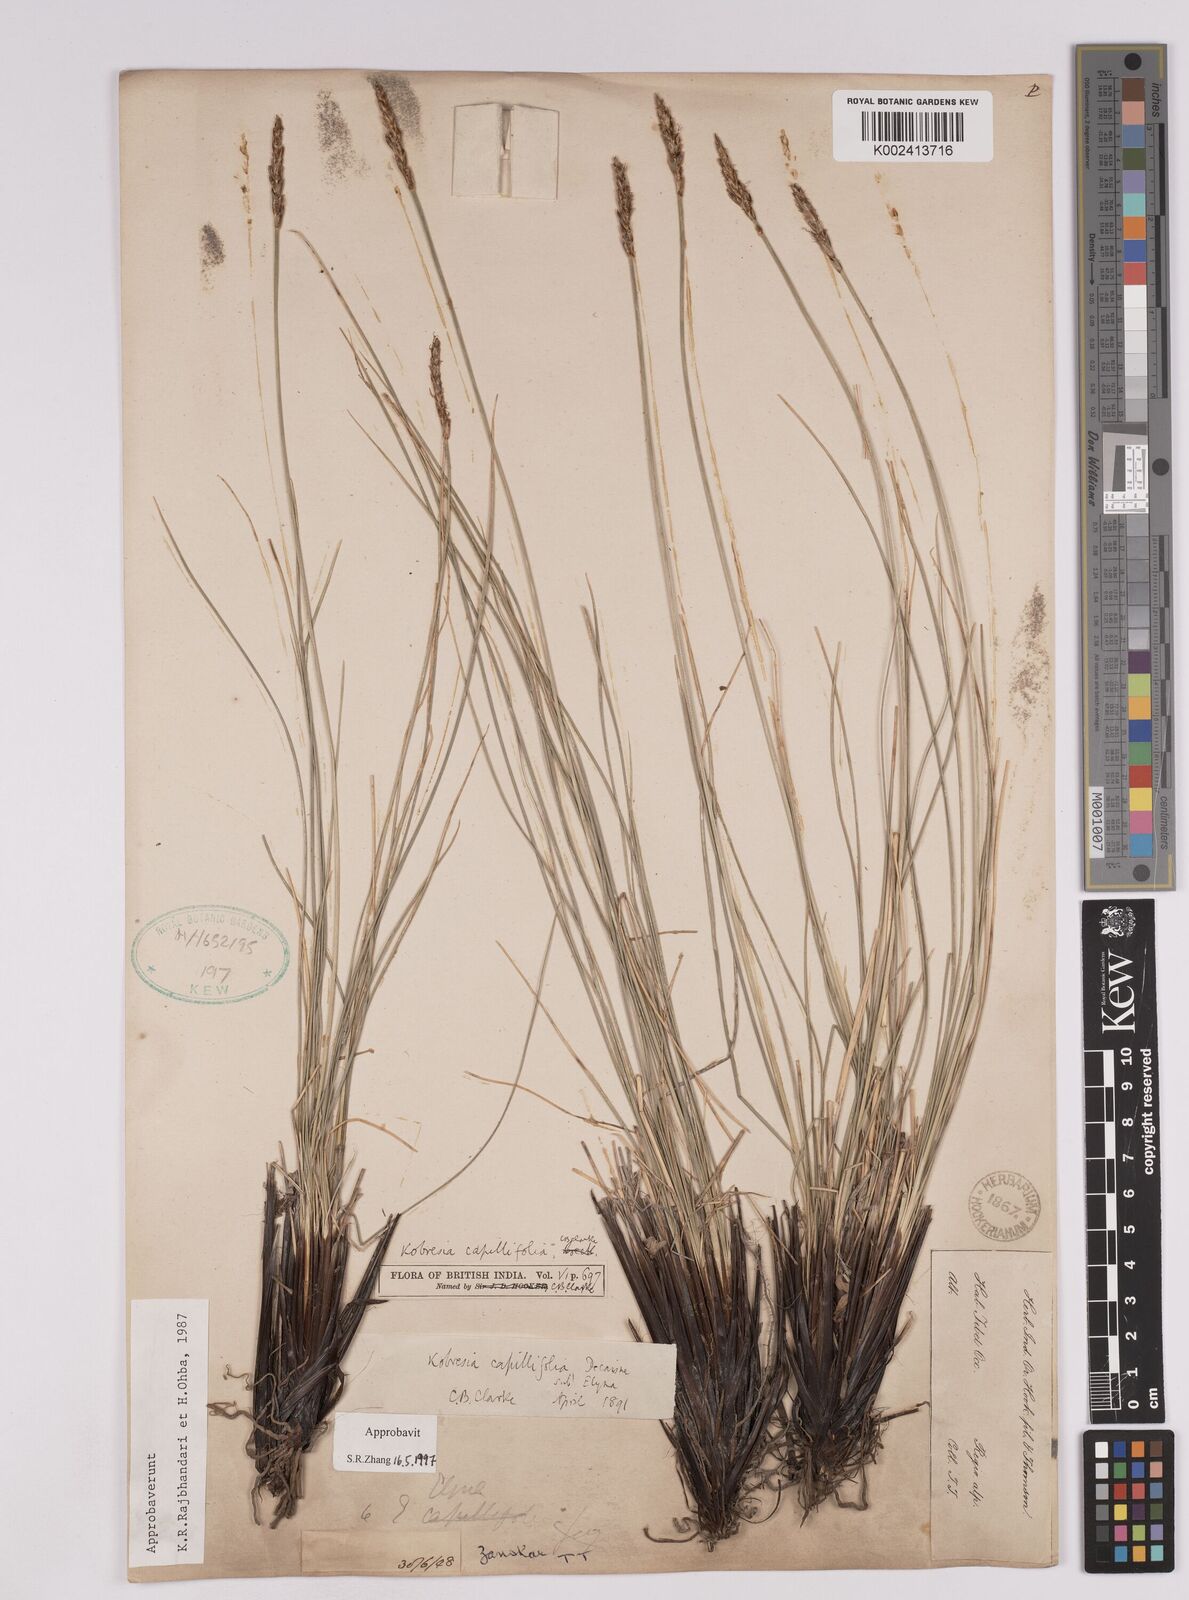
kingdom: Plantae
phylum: Tracheophyta
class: Liliopsida
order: Poales
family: Cyperaceae
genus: Carex
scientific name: Carex capillifolia
